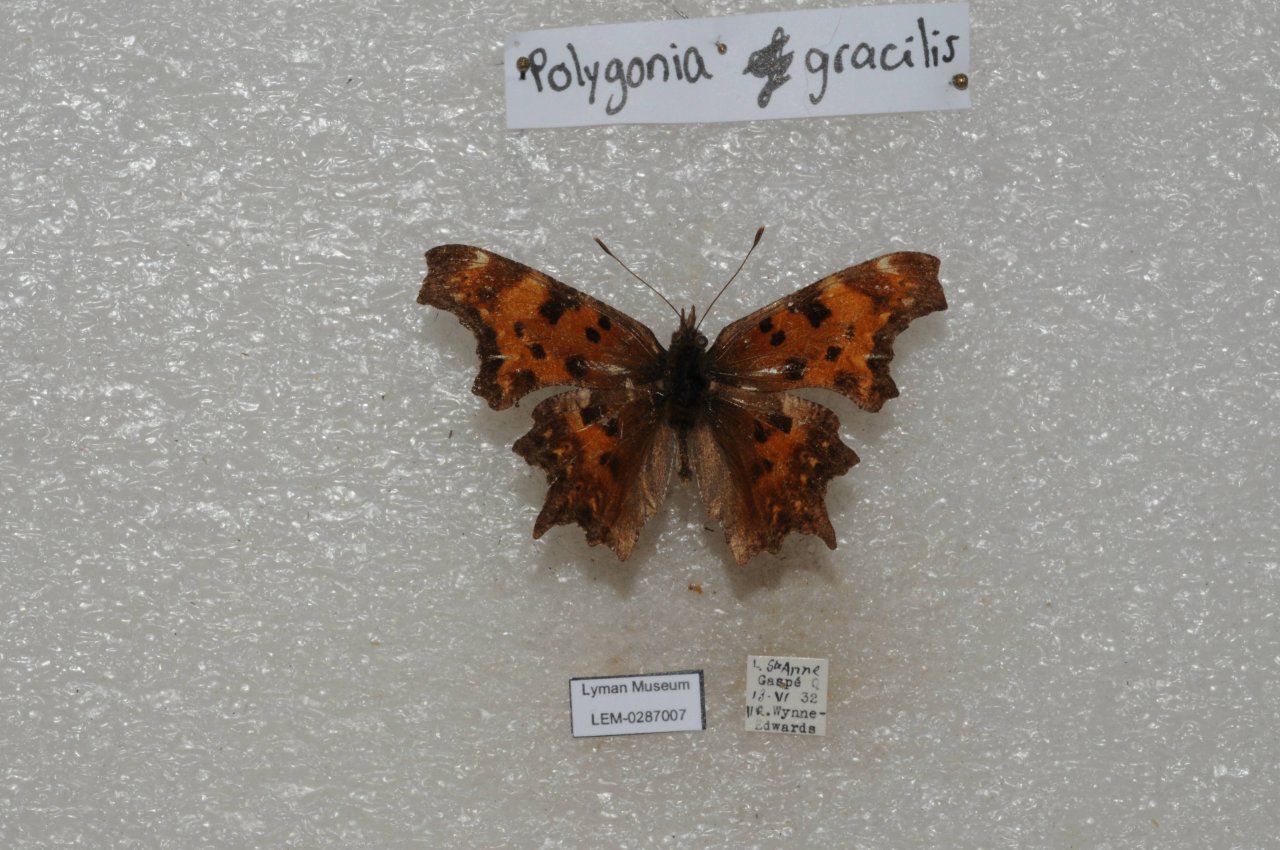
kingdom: Animalia
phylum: Arthropoda
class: Insecta
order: Lepidoptera
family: Nymphalidae
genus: Polygonia
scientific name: Polygonia gracilis
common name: Hoary Comma
